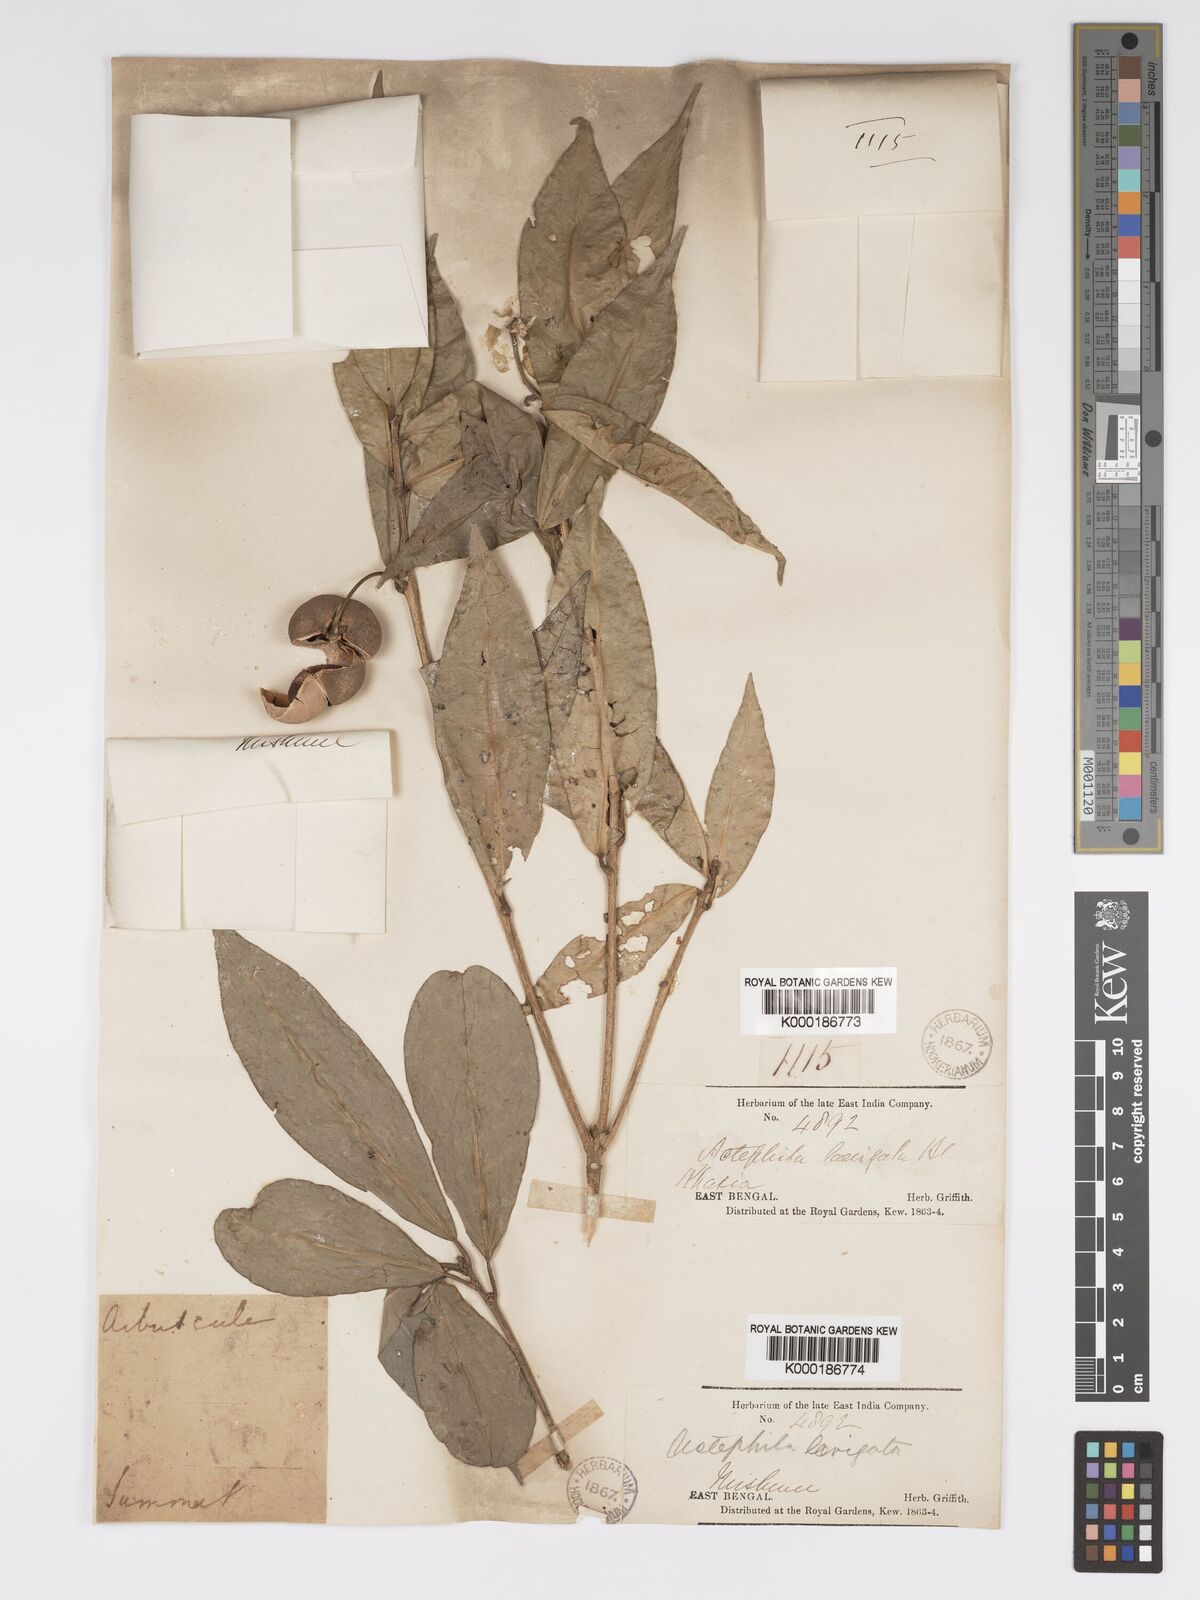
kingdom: Plantae
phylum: Tracheophyta
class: Magnoliopsida
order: Malpighiales
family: Phyllanthaceae
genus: Actephila
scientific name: Actephila excelsa
